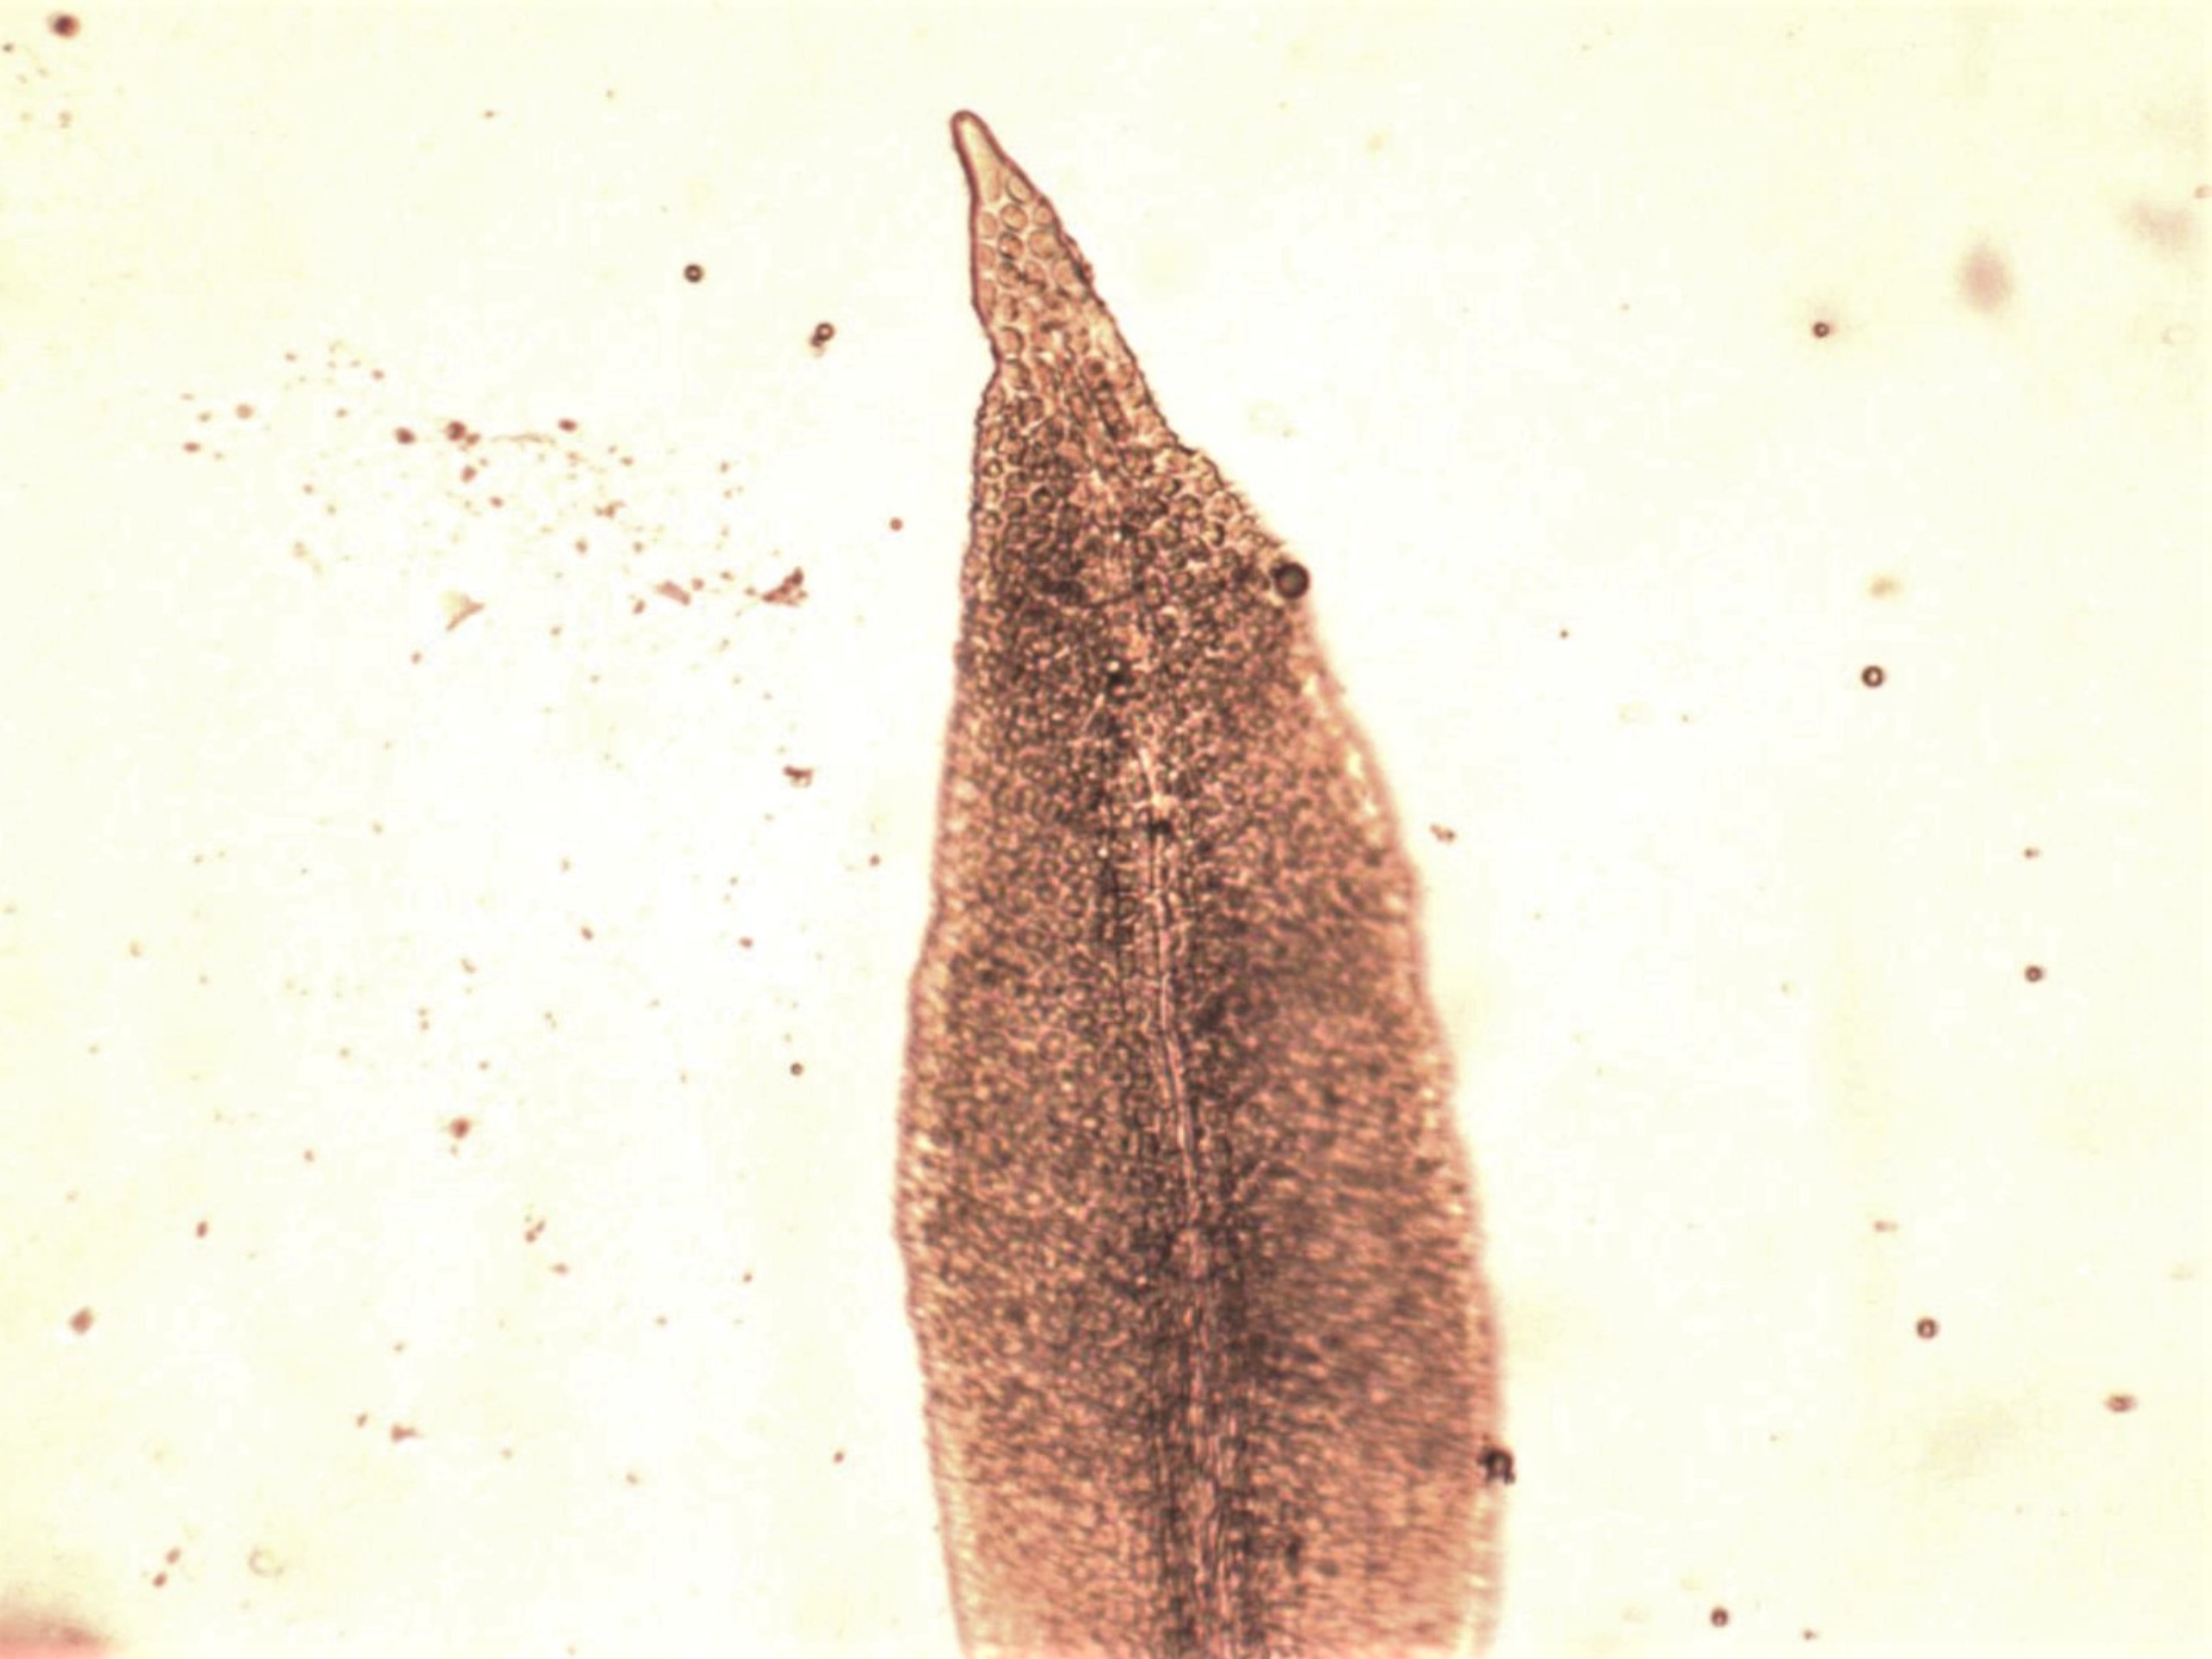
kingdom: Plantae
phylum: Bryophyta
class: Bryopsida
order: Orthotrichales
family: Orthotrichaceae
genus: Zygodon
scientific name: Zygodon viridissimus
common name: Grøn køllemos
